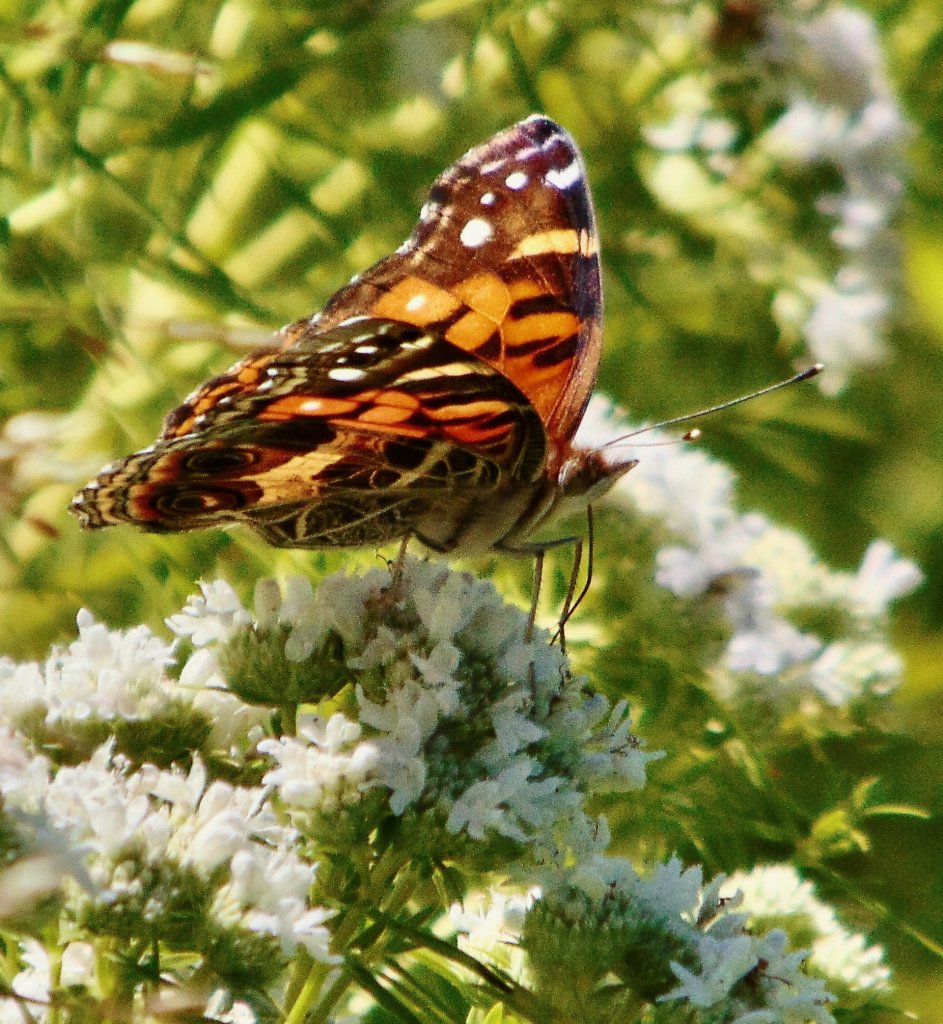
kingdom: Animalia
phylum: Arthropoda
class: Insecta
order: Lepidoptera
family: Nymphalidae
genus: Vanessa
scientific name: Vanessa virginiensis
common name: American Lady
